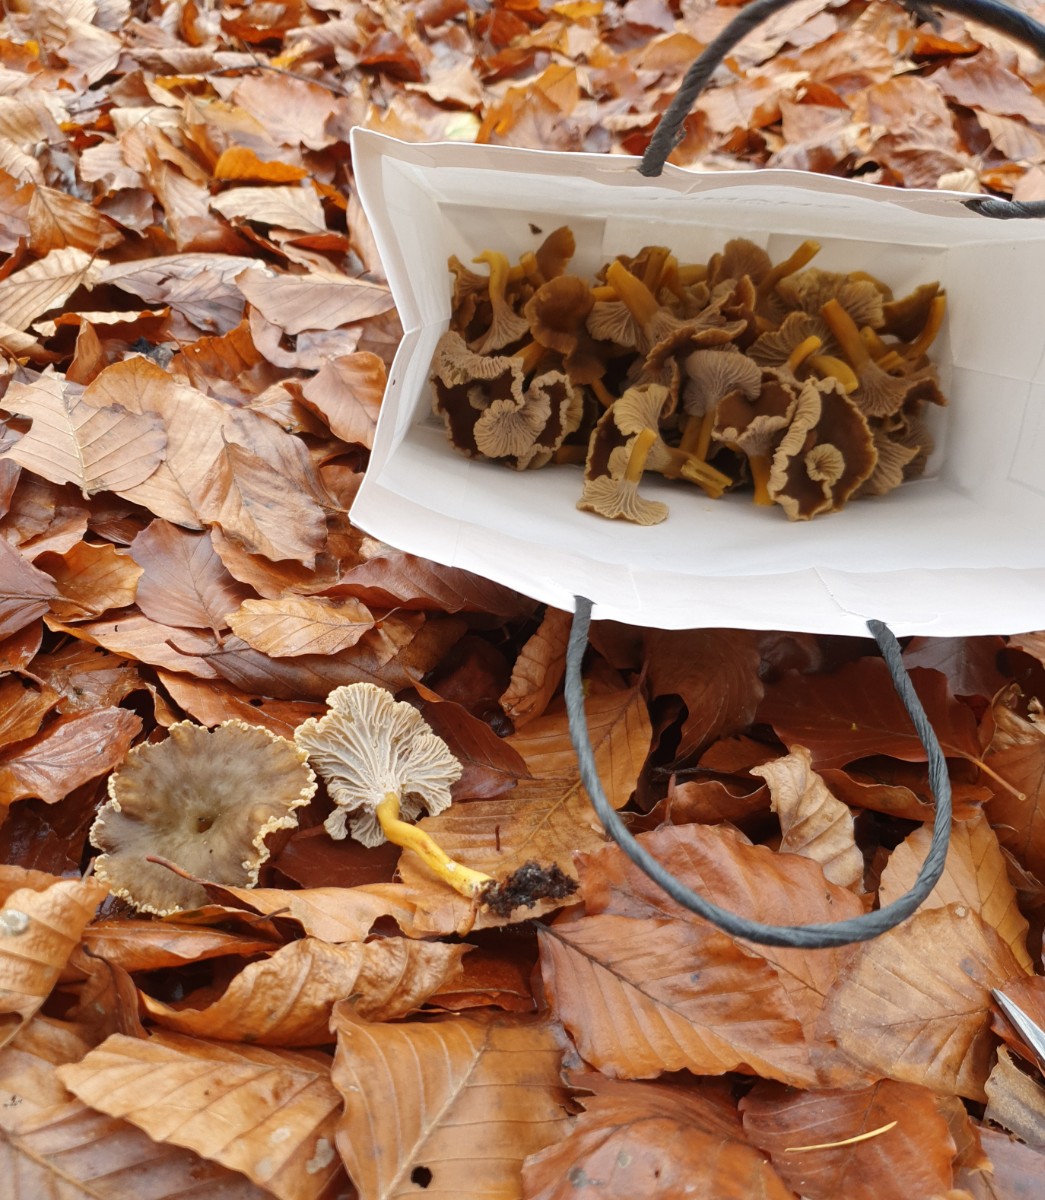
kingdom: Fungi
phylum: Basidiomycota
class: Agaricomycetes
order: Cantharellales
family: Hydnaceae
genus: Craterellus
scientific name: Craterellus tubaeformis
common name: tragt-kantarel
